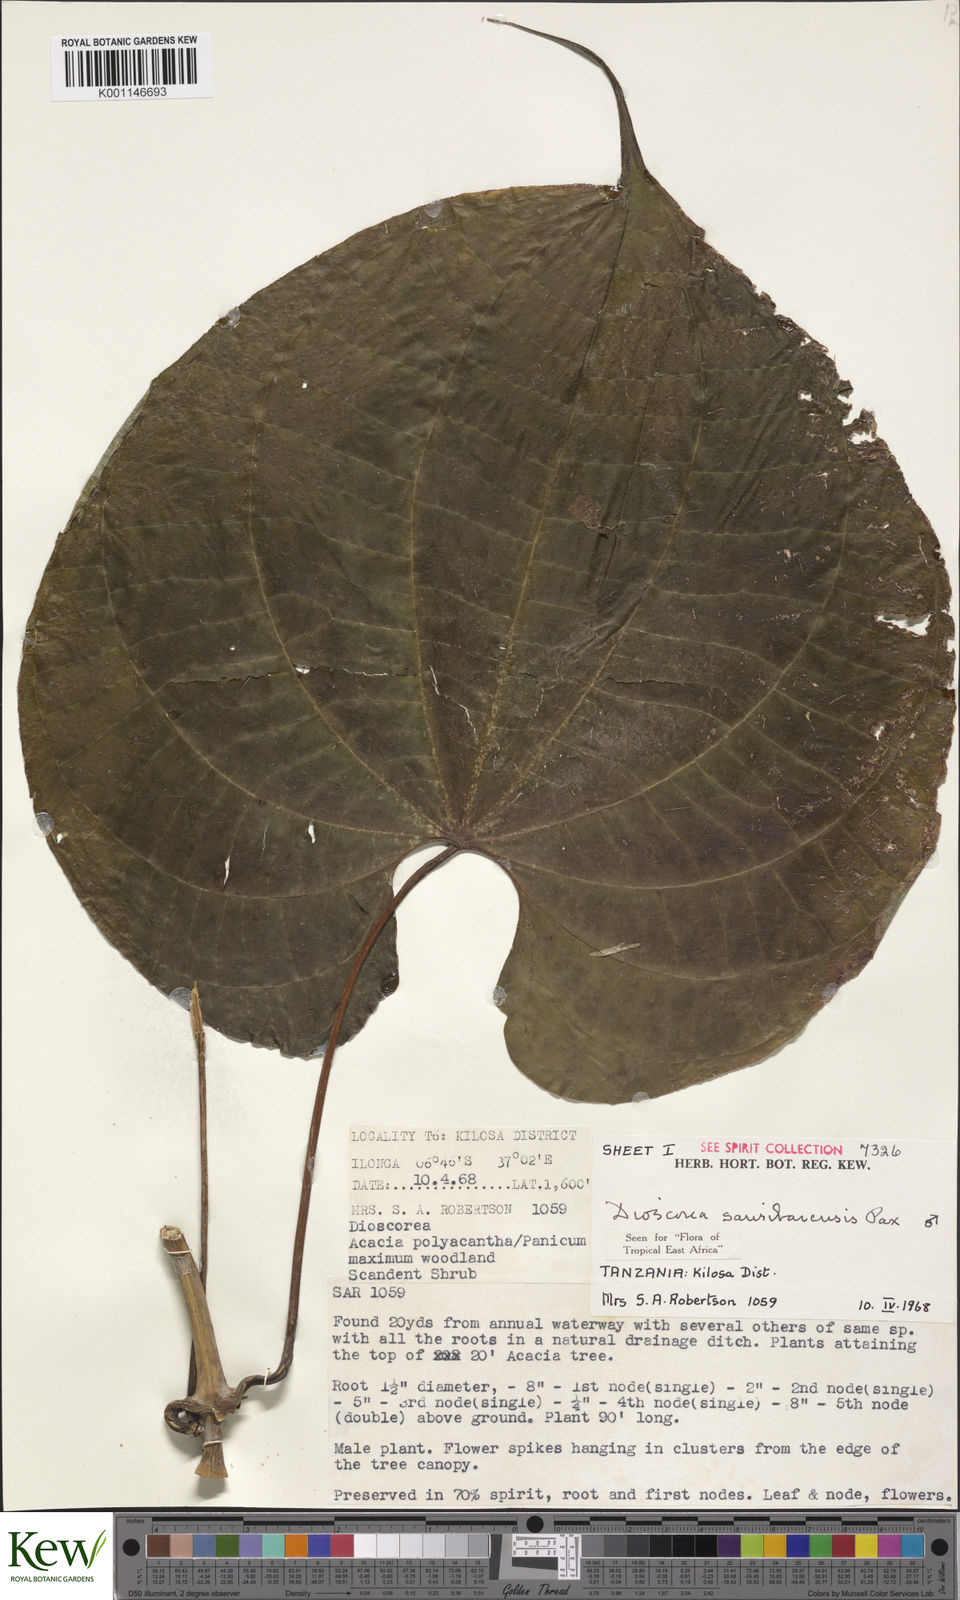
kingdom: Plantae
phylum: Tracheophyta
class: Liliopsida
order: Dioscoreales
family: Dioscoreaceae
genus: Dioscorea
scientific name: Dioscorea sansibarensis
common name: Zanzibar yam
